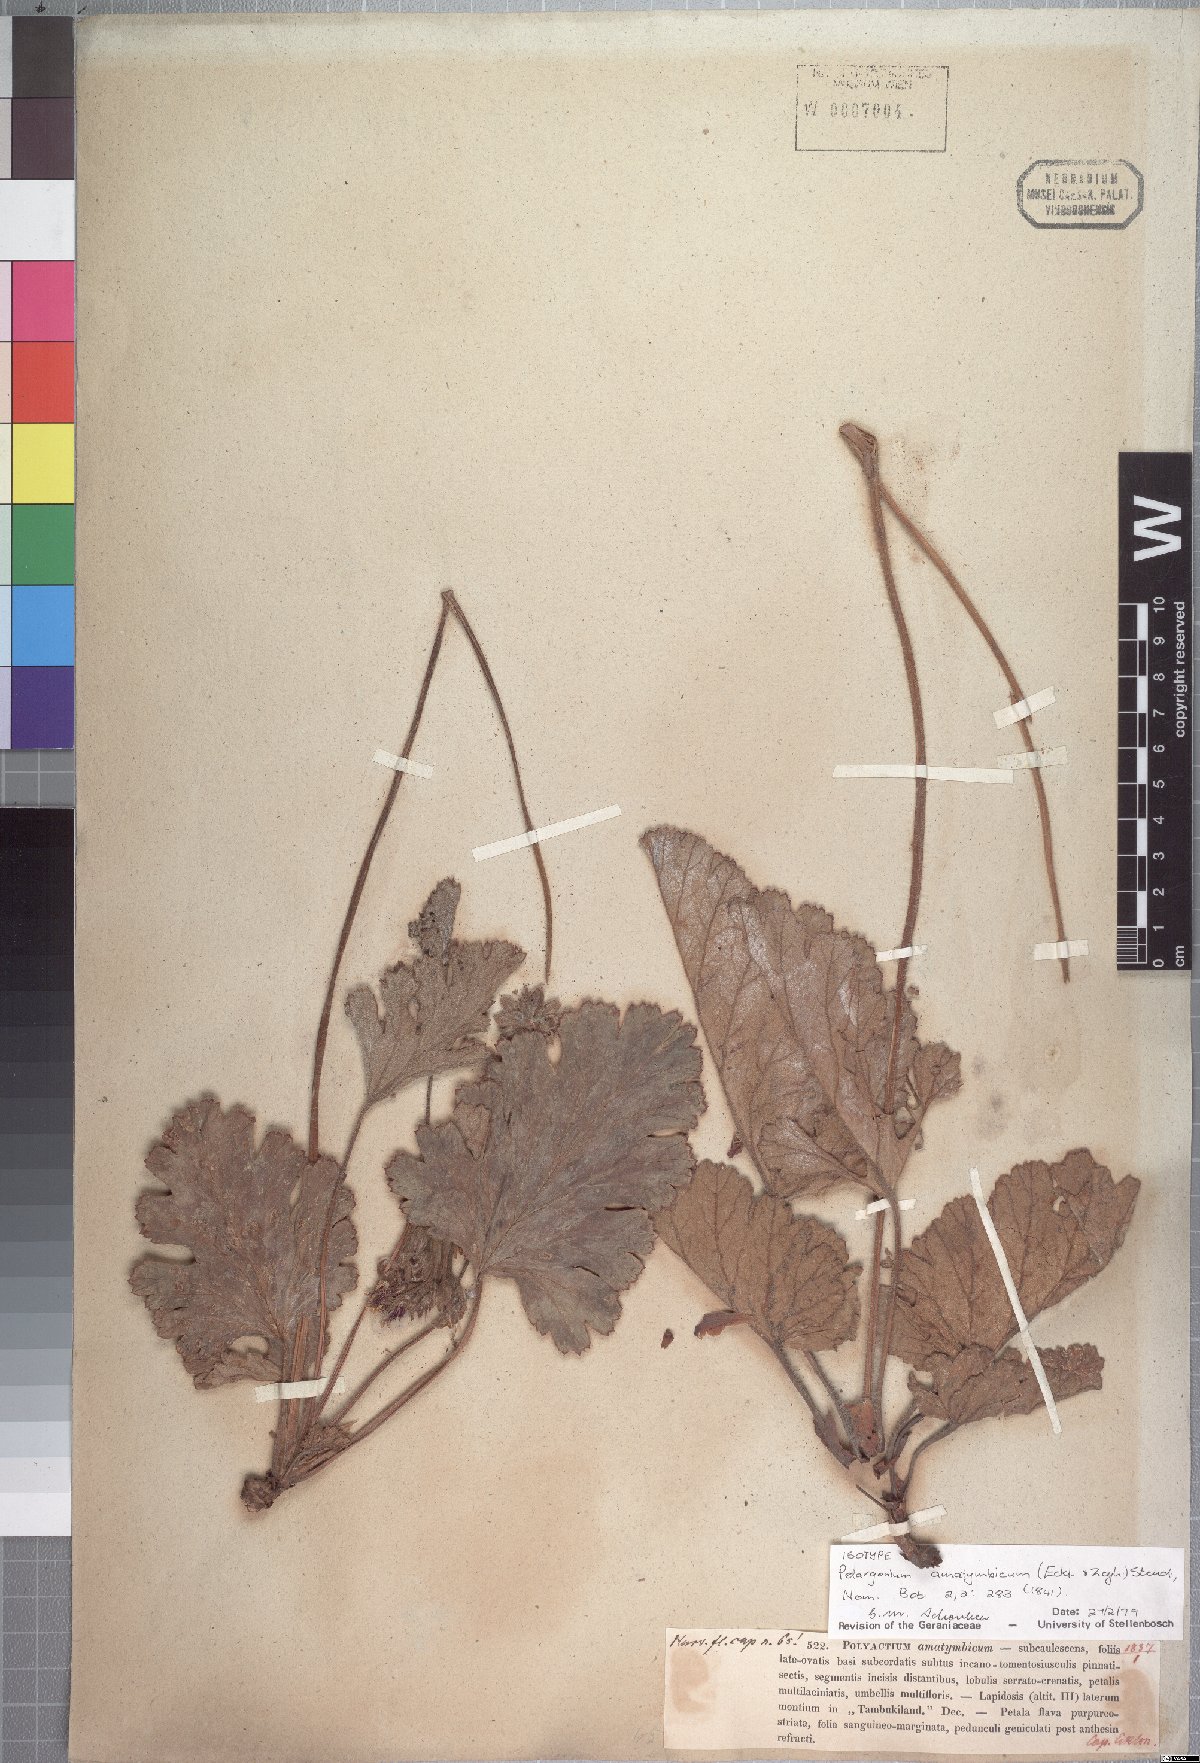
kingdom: Plantae
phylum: Tracheophyta
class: Magnoliopsida
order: Geraniales
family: Geraniaceae
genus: Pelargonium
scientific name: Pelargonium schizopetalum
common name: Divided-petal pelargonium
